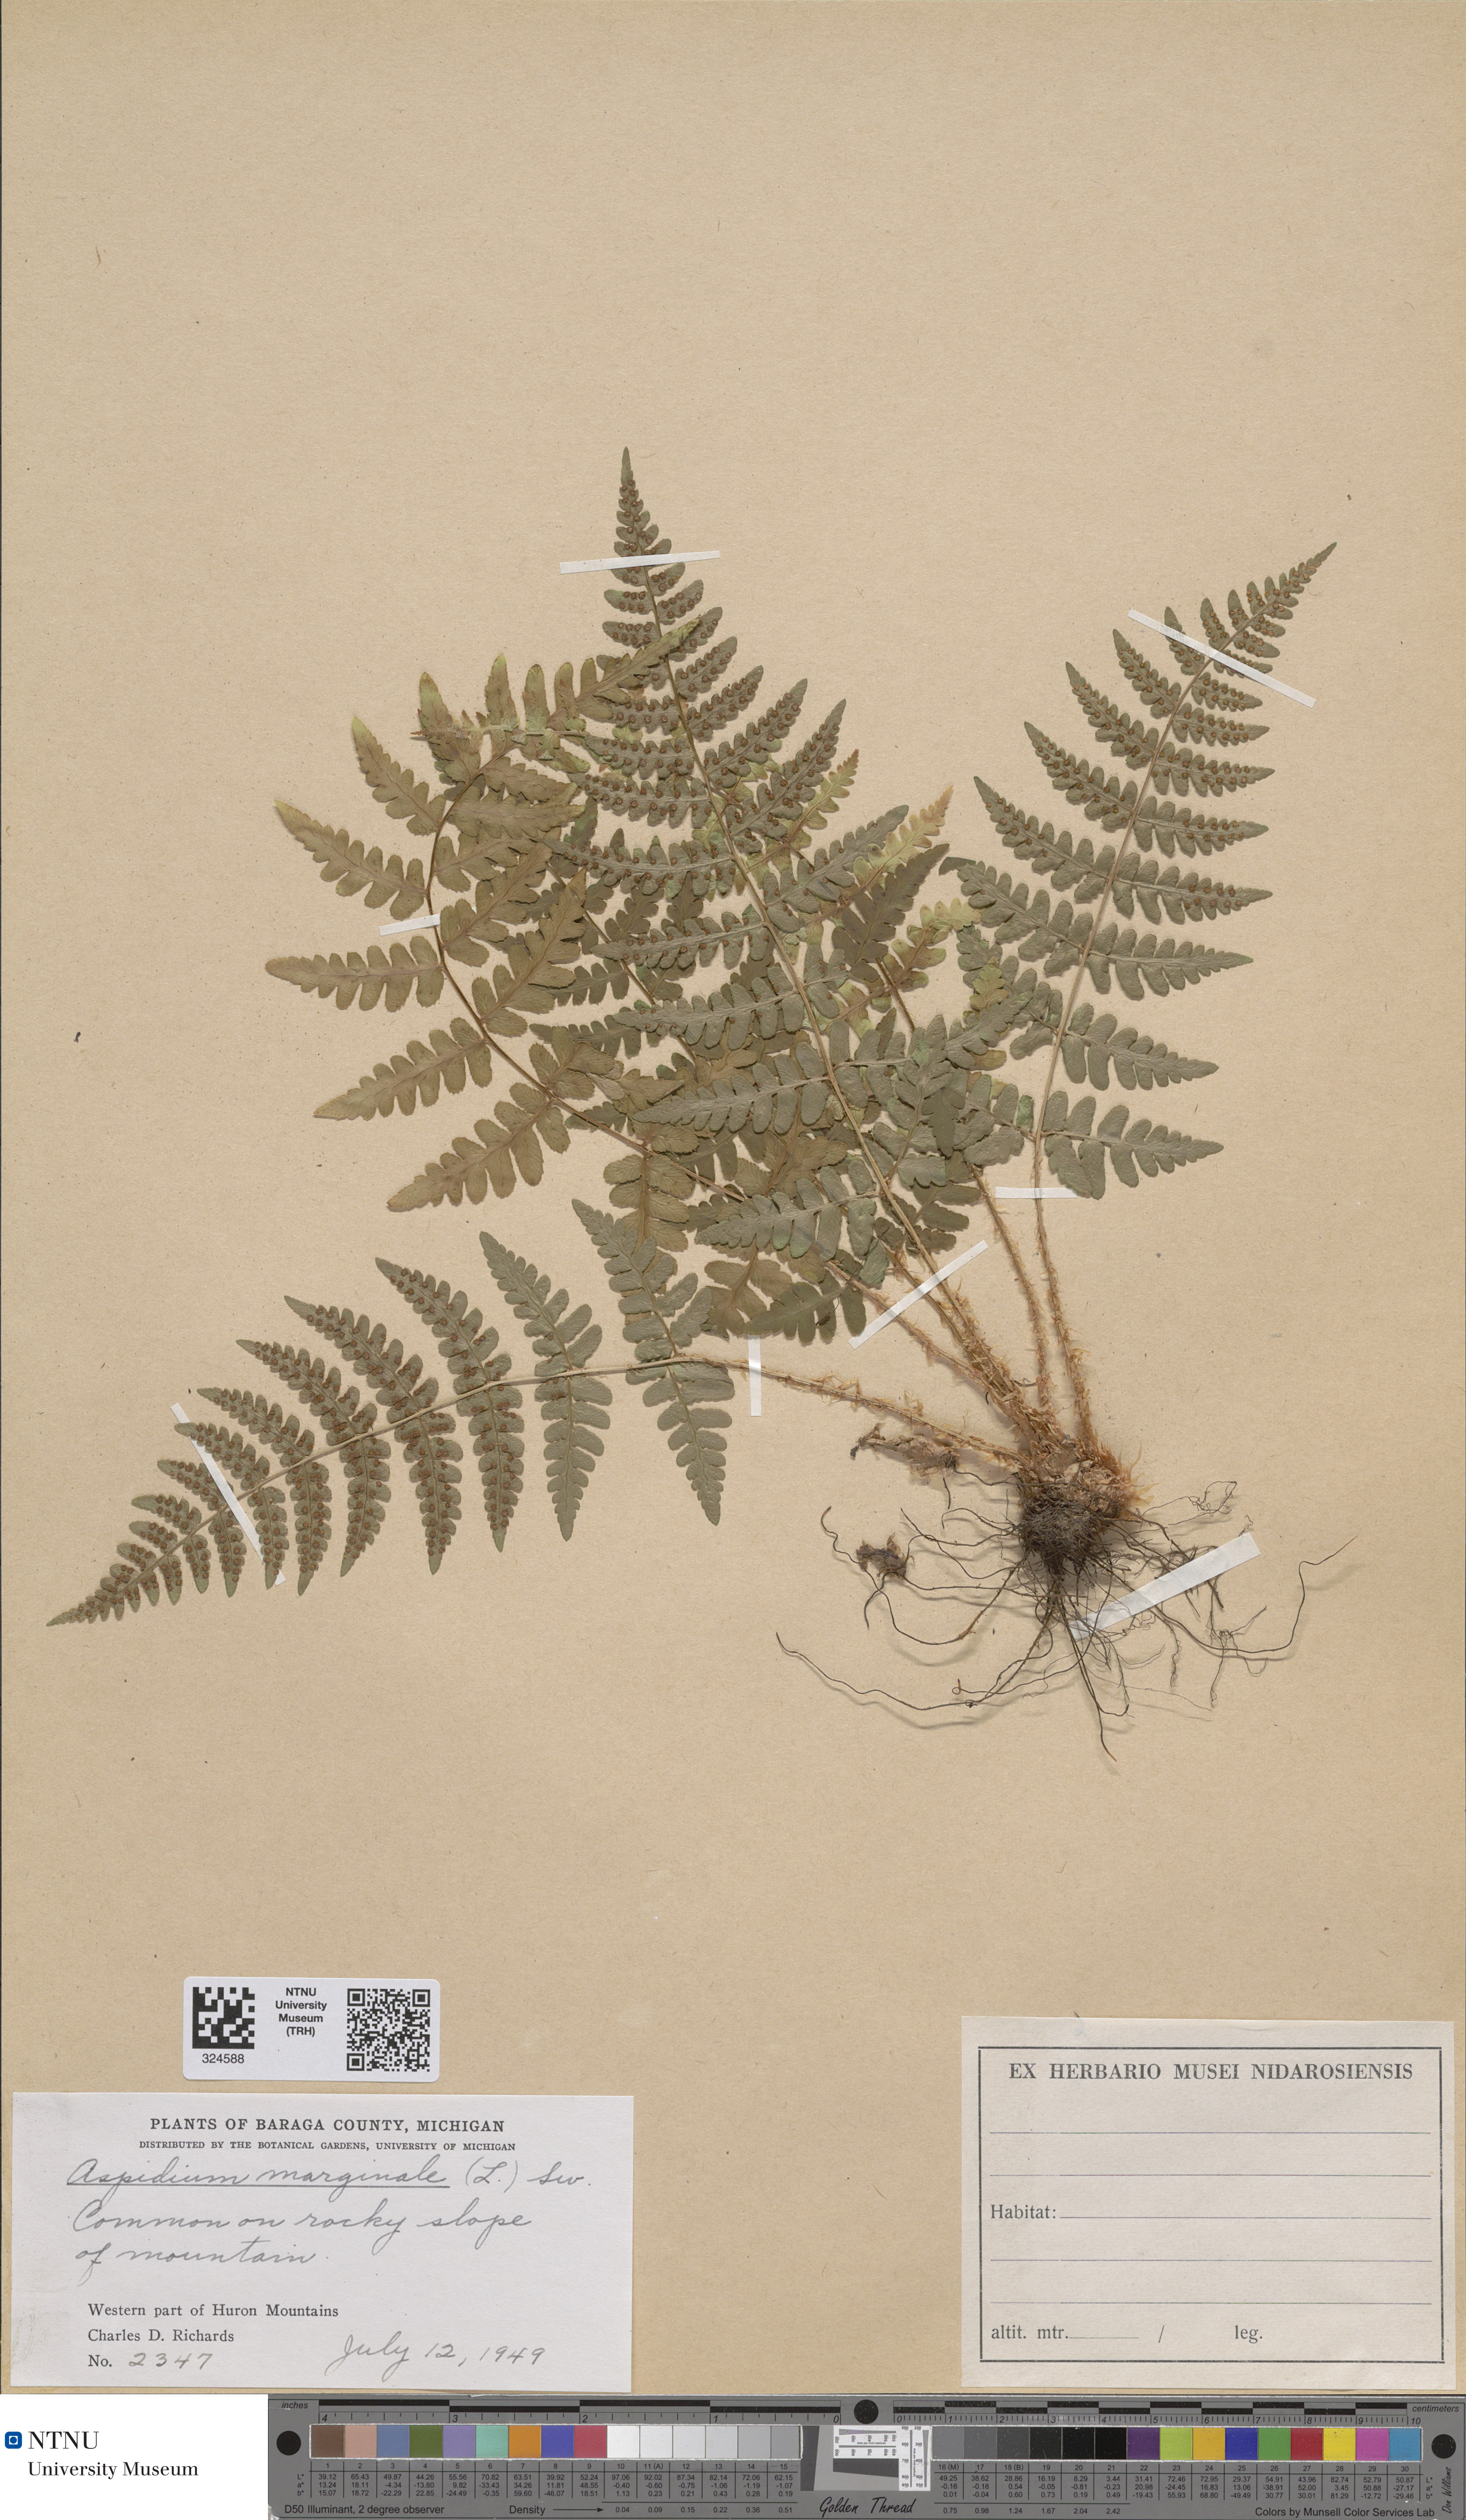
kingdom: Plantae
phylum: Tracheophyta
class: Polypodiopsida
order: Polypodiales
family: Dryopteridaceae
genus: Dryopteris
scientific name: Dryopteris marginalis
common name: Marginal wood fern
